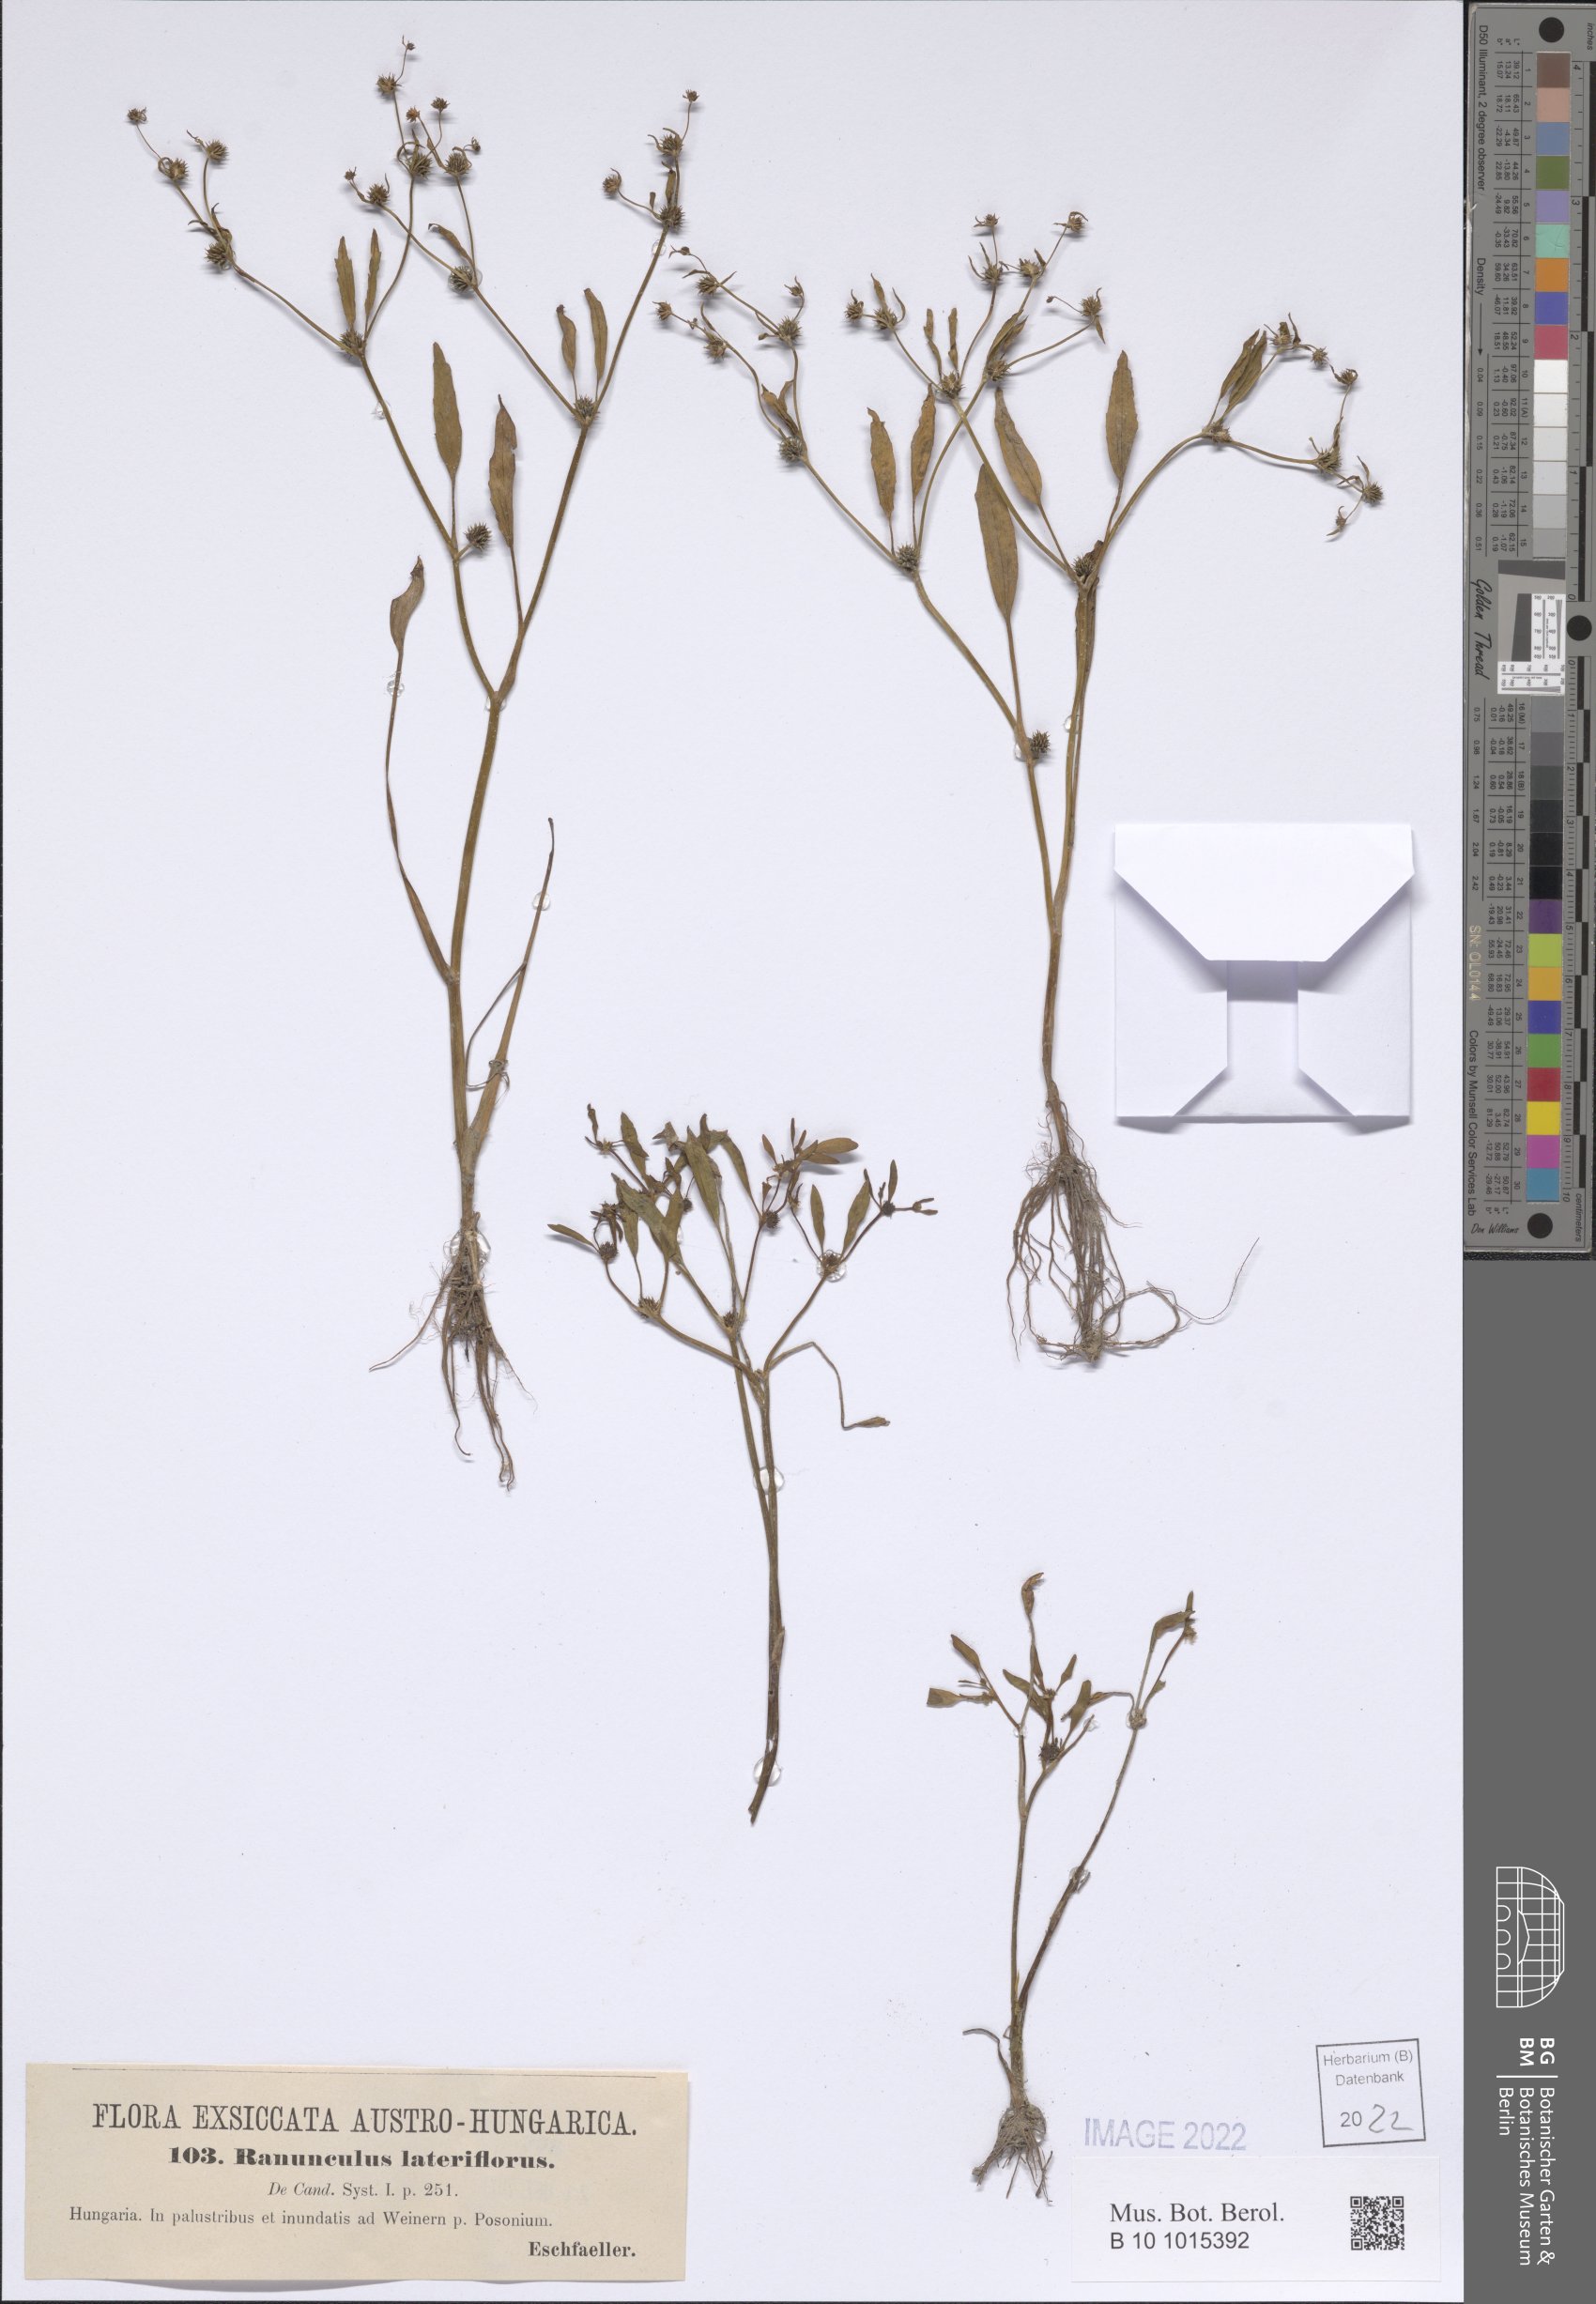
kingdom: Plantae
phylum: Tracheophyta
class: Magnoliopsida
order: Ranunculales
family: Ranunculaceae
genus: Ranunculus
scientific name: Ranunculus lateriflorus
